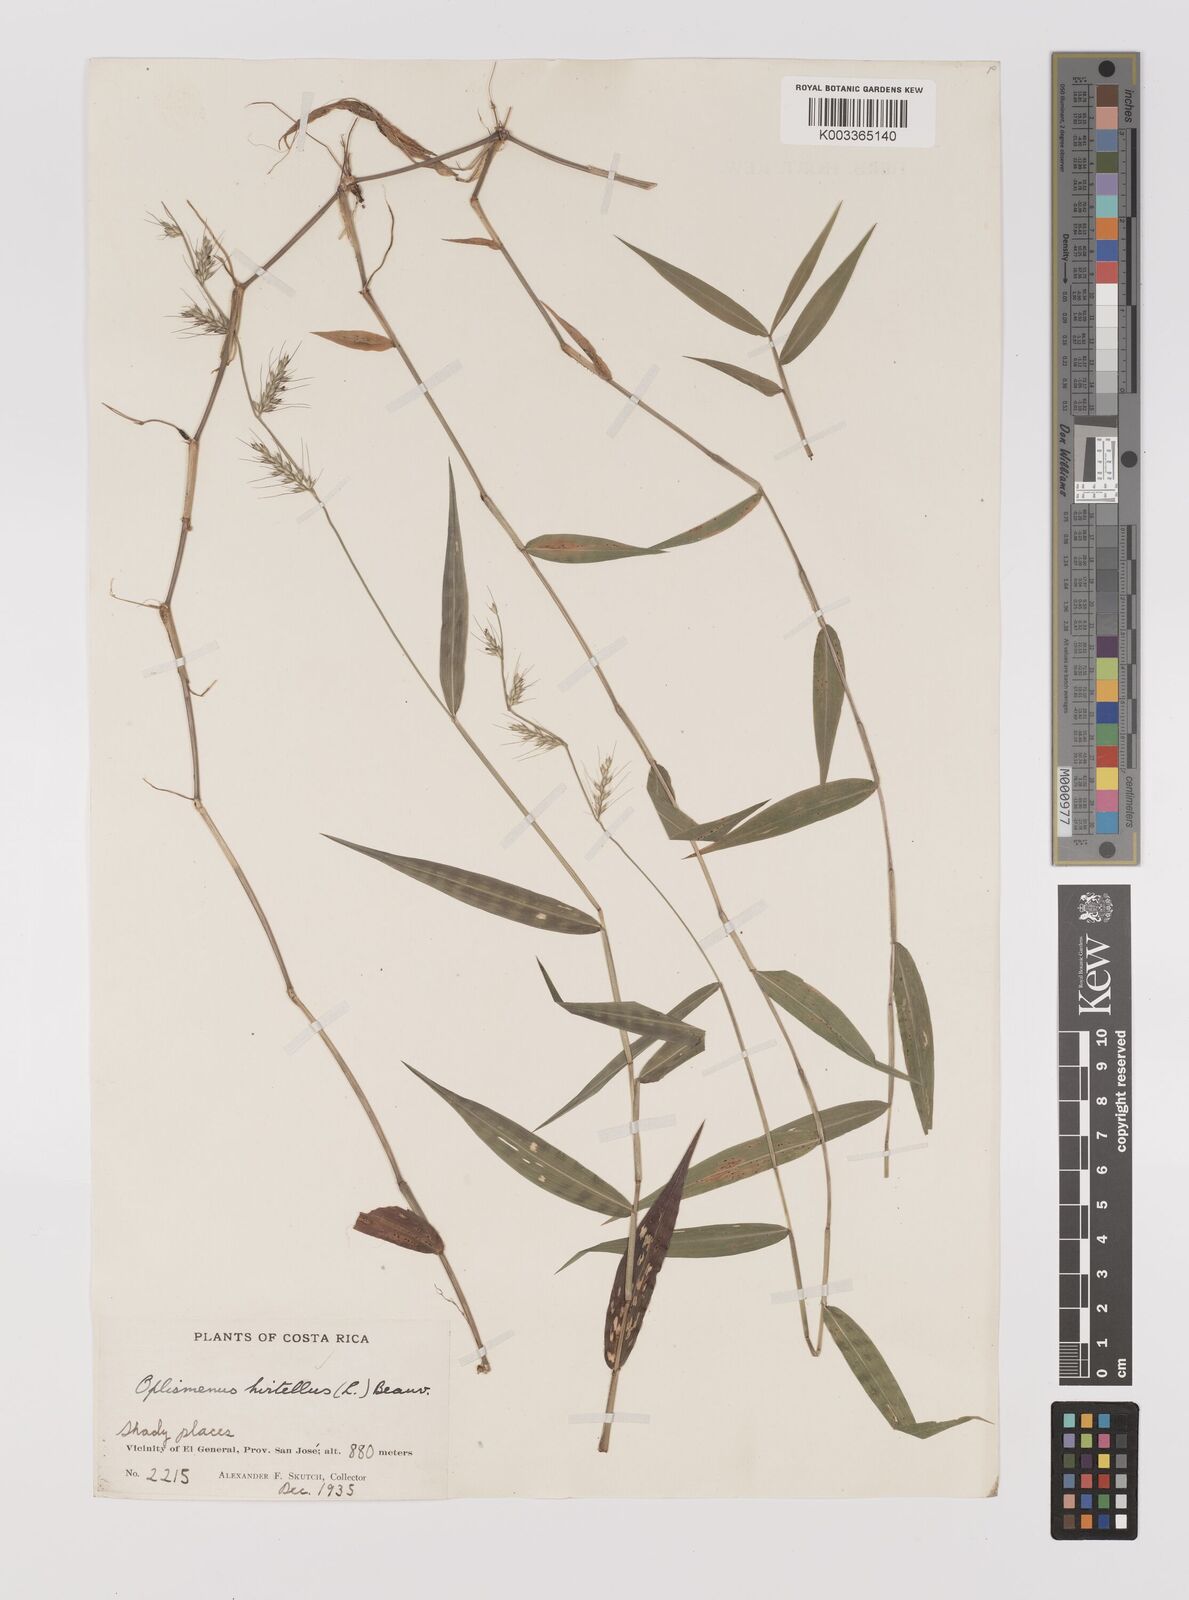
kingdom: Plantae
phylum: Tracheophyta
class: Liliopsida
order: Poales
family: Poaceae
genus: Oplismenus
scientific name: Oplismenus hirtellus
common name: Basketgrass
